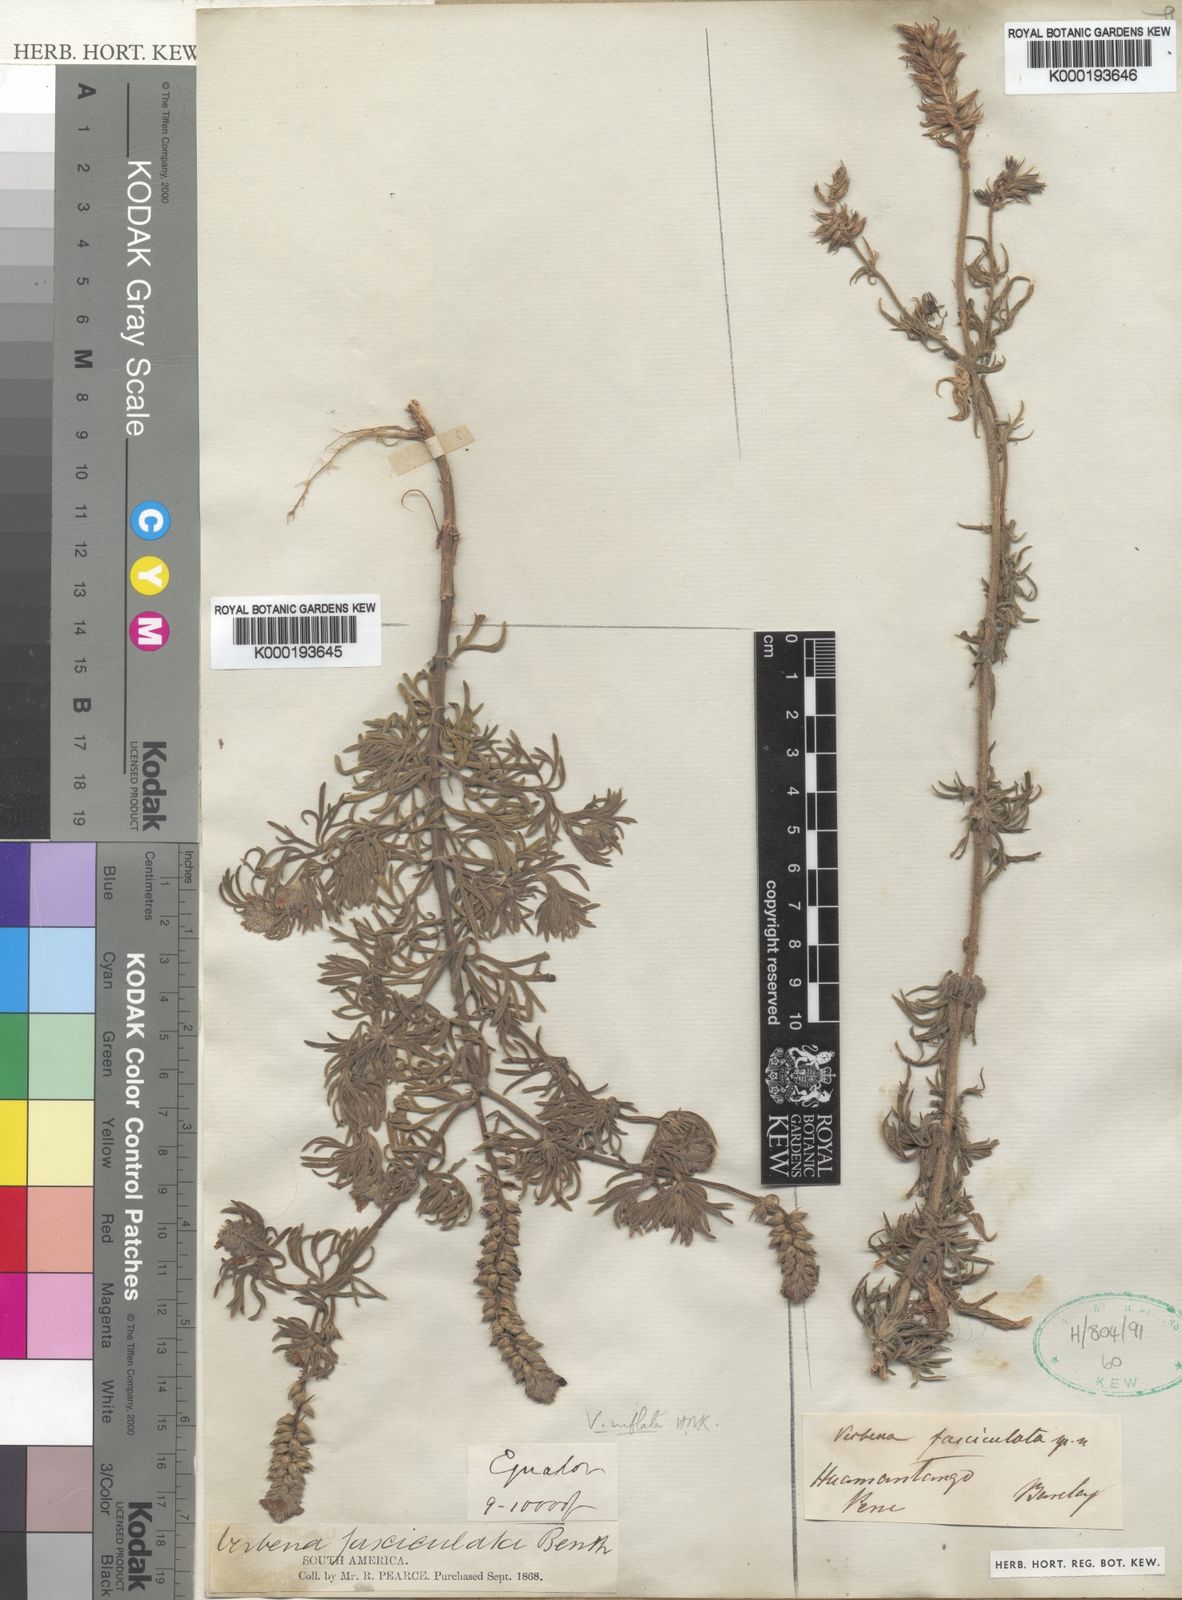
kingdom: Plantae
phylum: Tracheophyta
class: Magnoliopsida
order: Lamiales
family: Verbenaceae
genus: Junellia
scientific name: Junellia fasciculata
